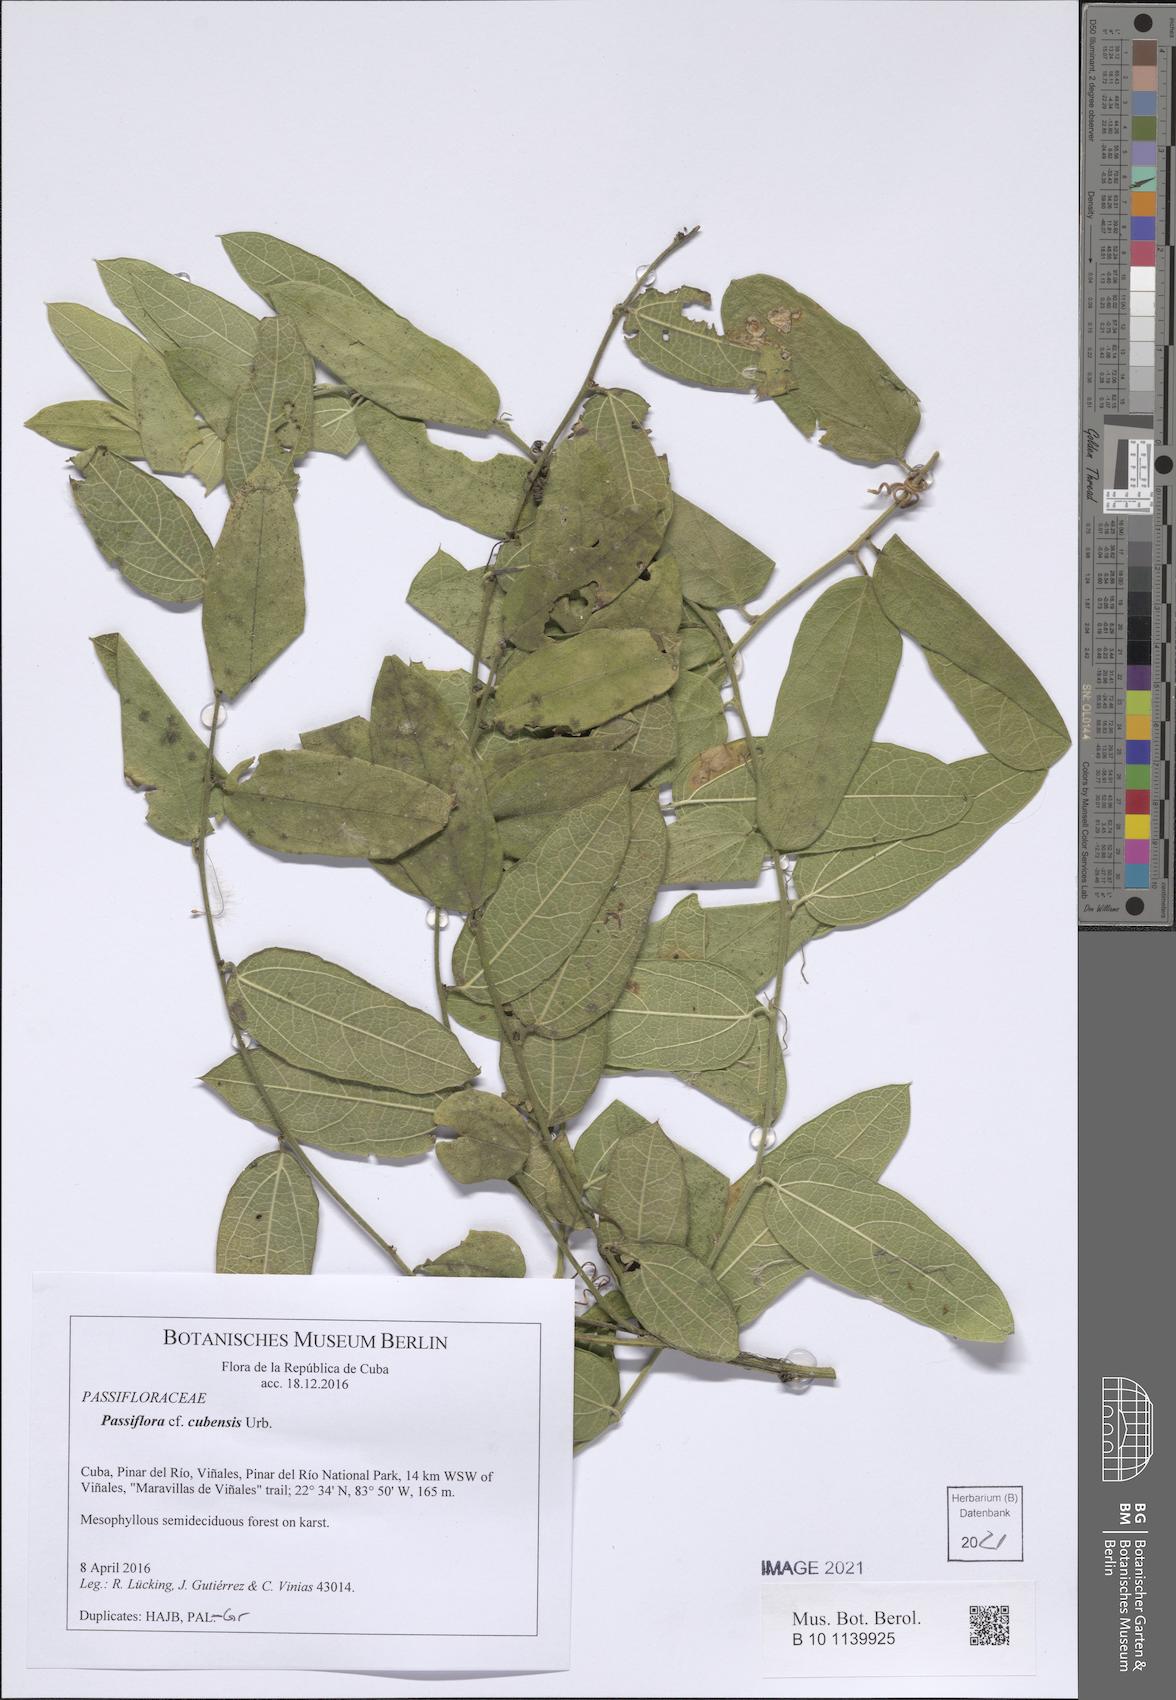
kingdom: Plantae
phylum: Tracheophyta
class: Magnoliopsida
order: Malpighiales
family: Passifloraceae
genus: Passiflora
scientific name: Passiflora multiflora
